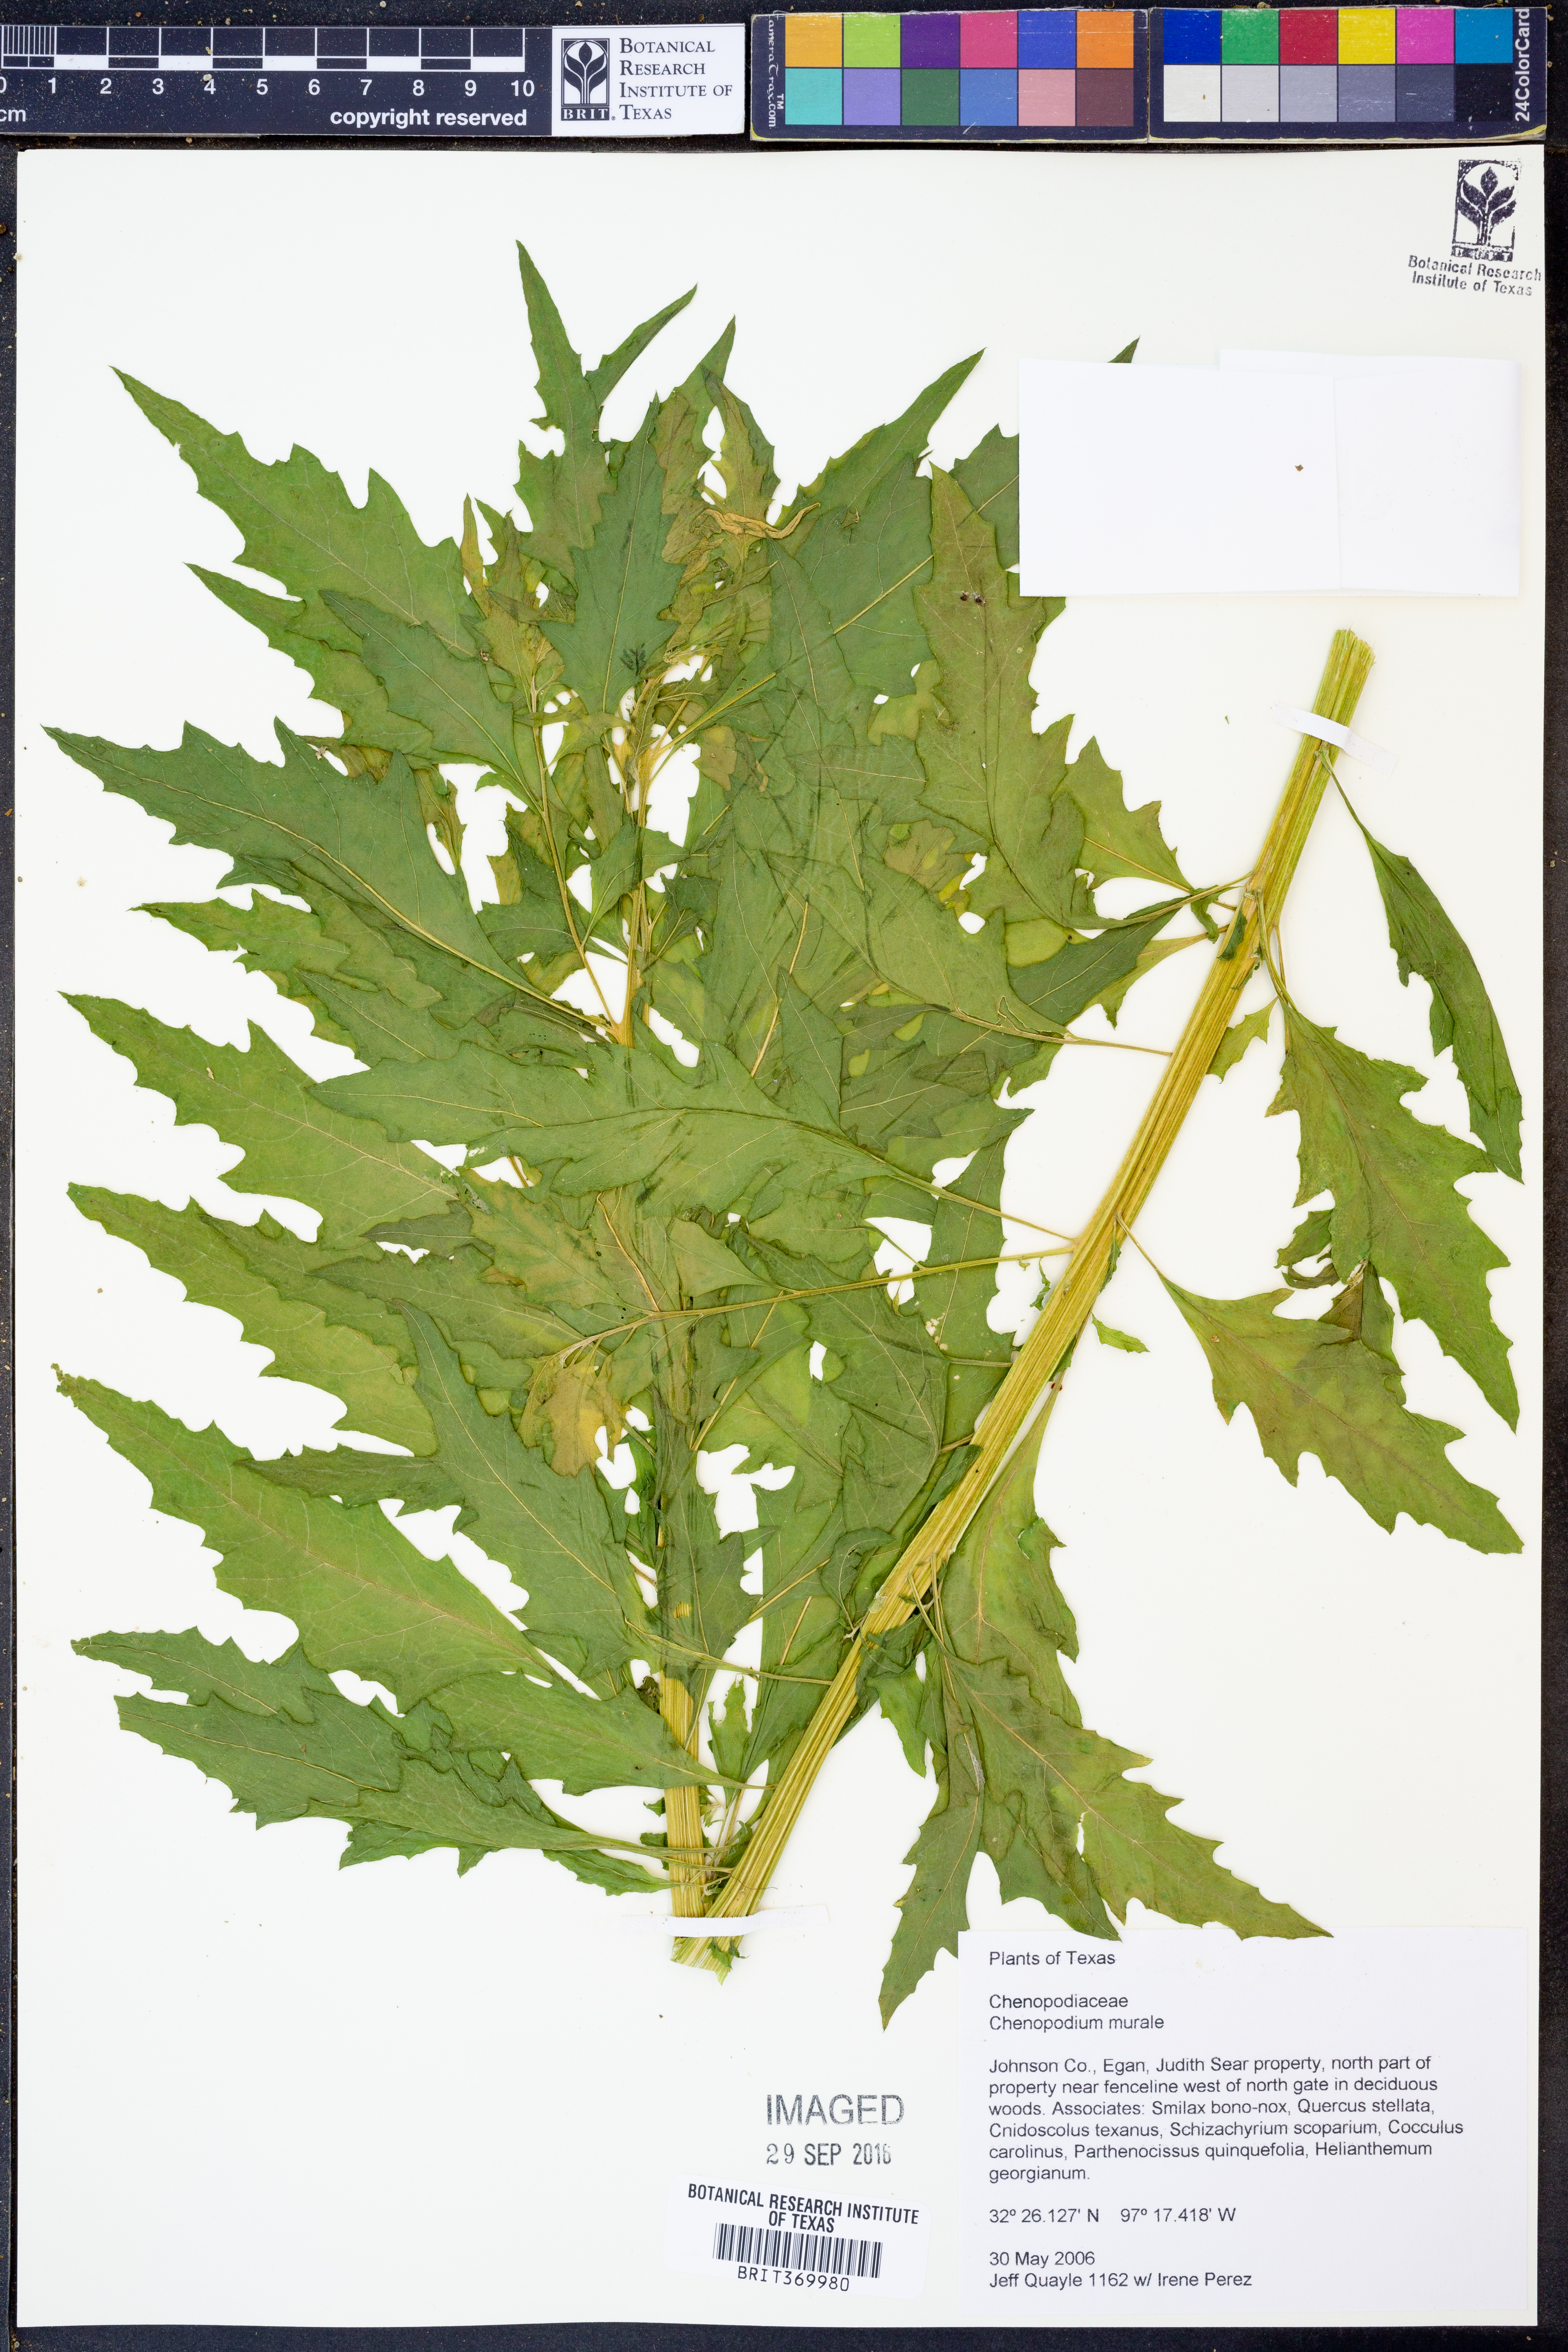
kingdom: Plantae
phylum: Tracheophyta
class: Magnoliopsida
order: Caryophyllales
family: Amaranthaceae
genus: Chenopodiastrum
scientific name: Chenopodiastrum murale
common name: Sowbane
